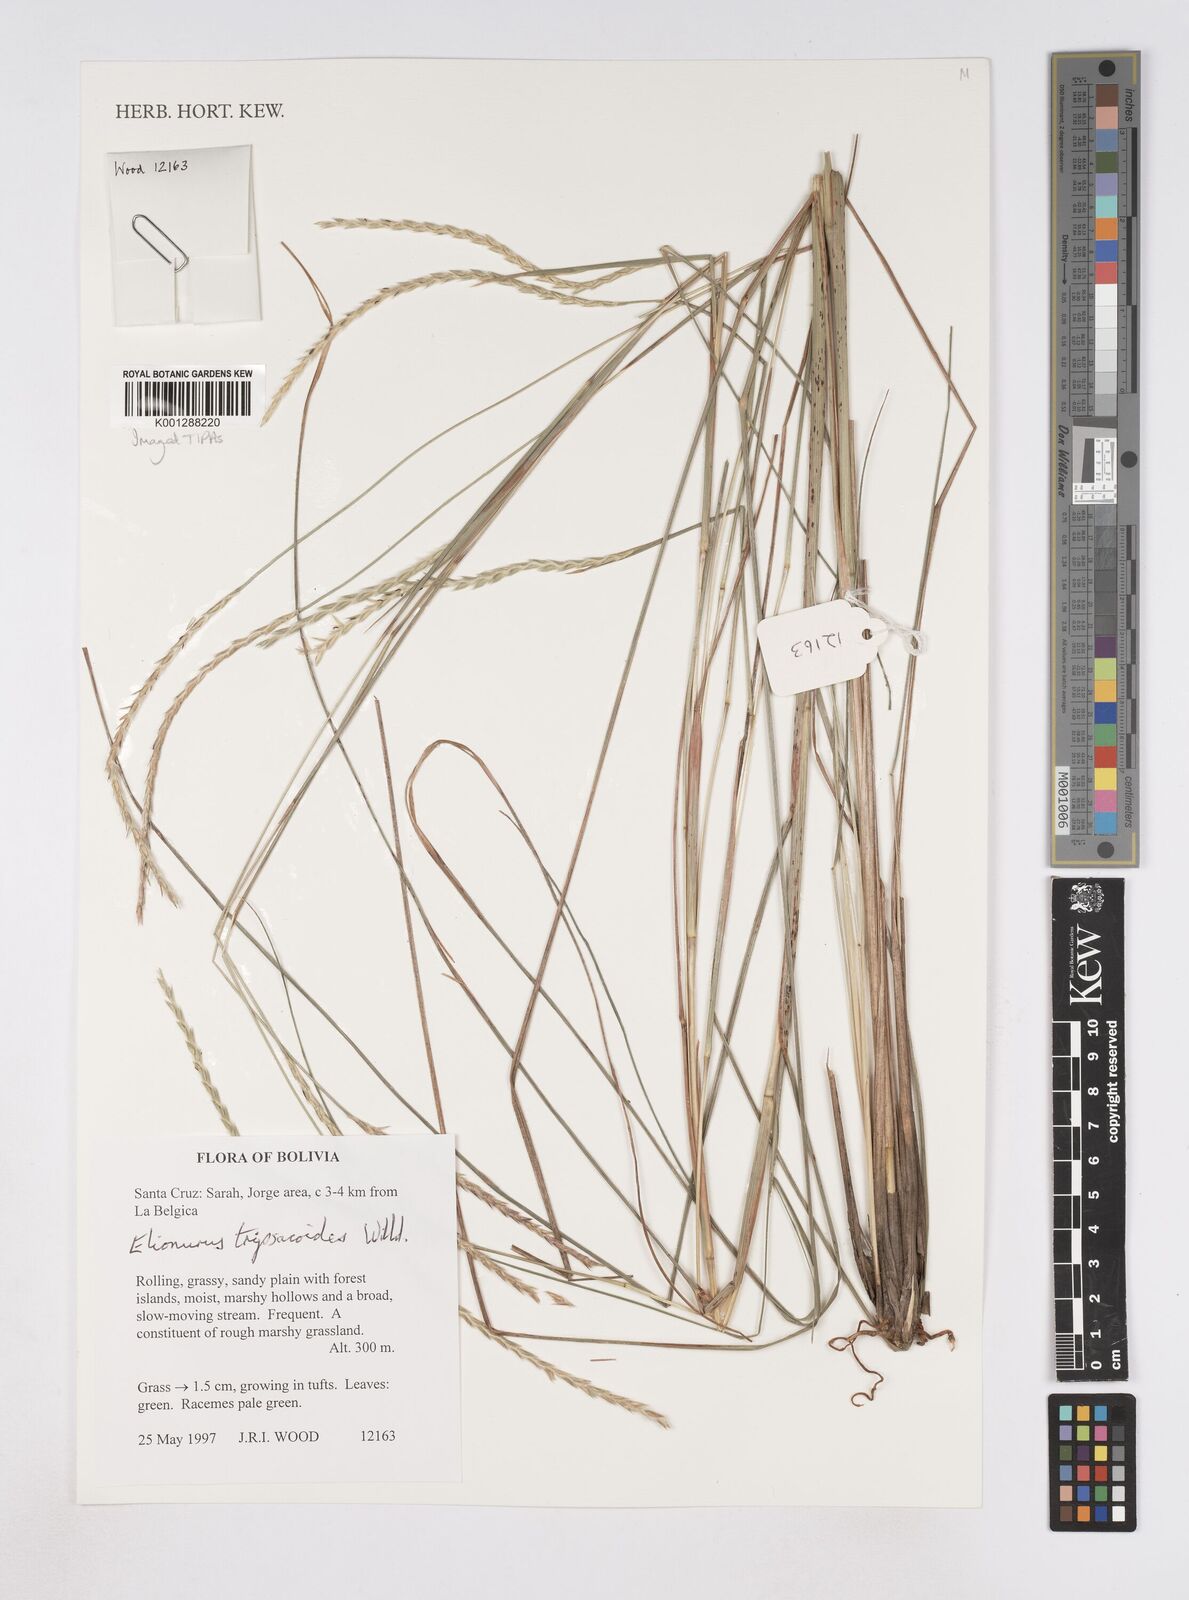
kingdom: Plantae
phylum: Tracheophyta
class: Liliopsida
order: Poales
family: Poaceae
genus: Elionurus
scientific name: Elionurus tripsacoides
